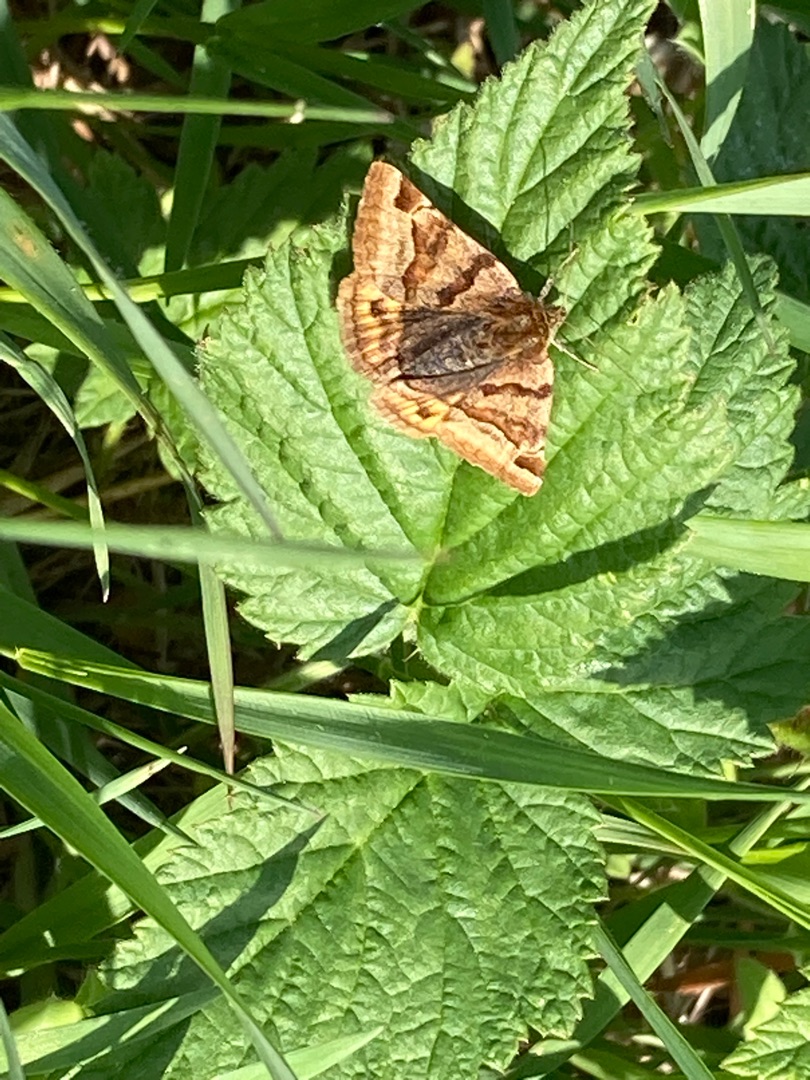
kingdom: Animalia
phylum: Arthropoda
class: Insecta
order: Lepidoptera
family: Erebidae
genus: Euclidia
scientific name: Euclidia glyphica
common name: Brun kløverugle
